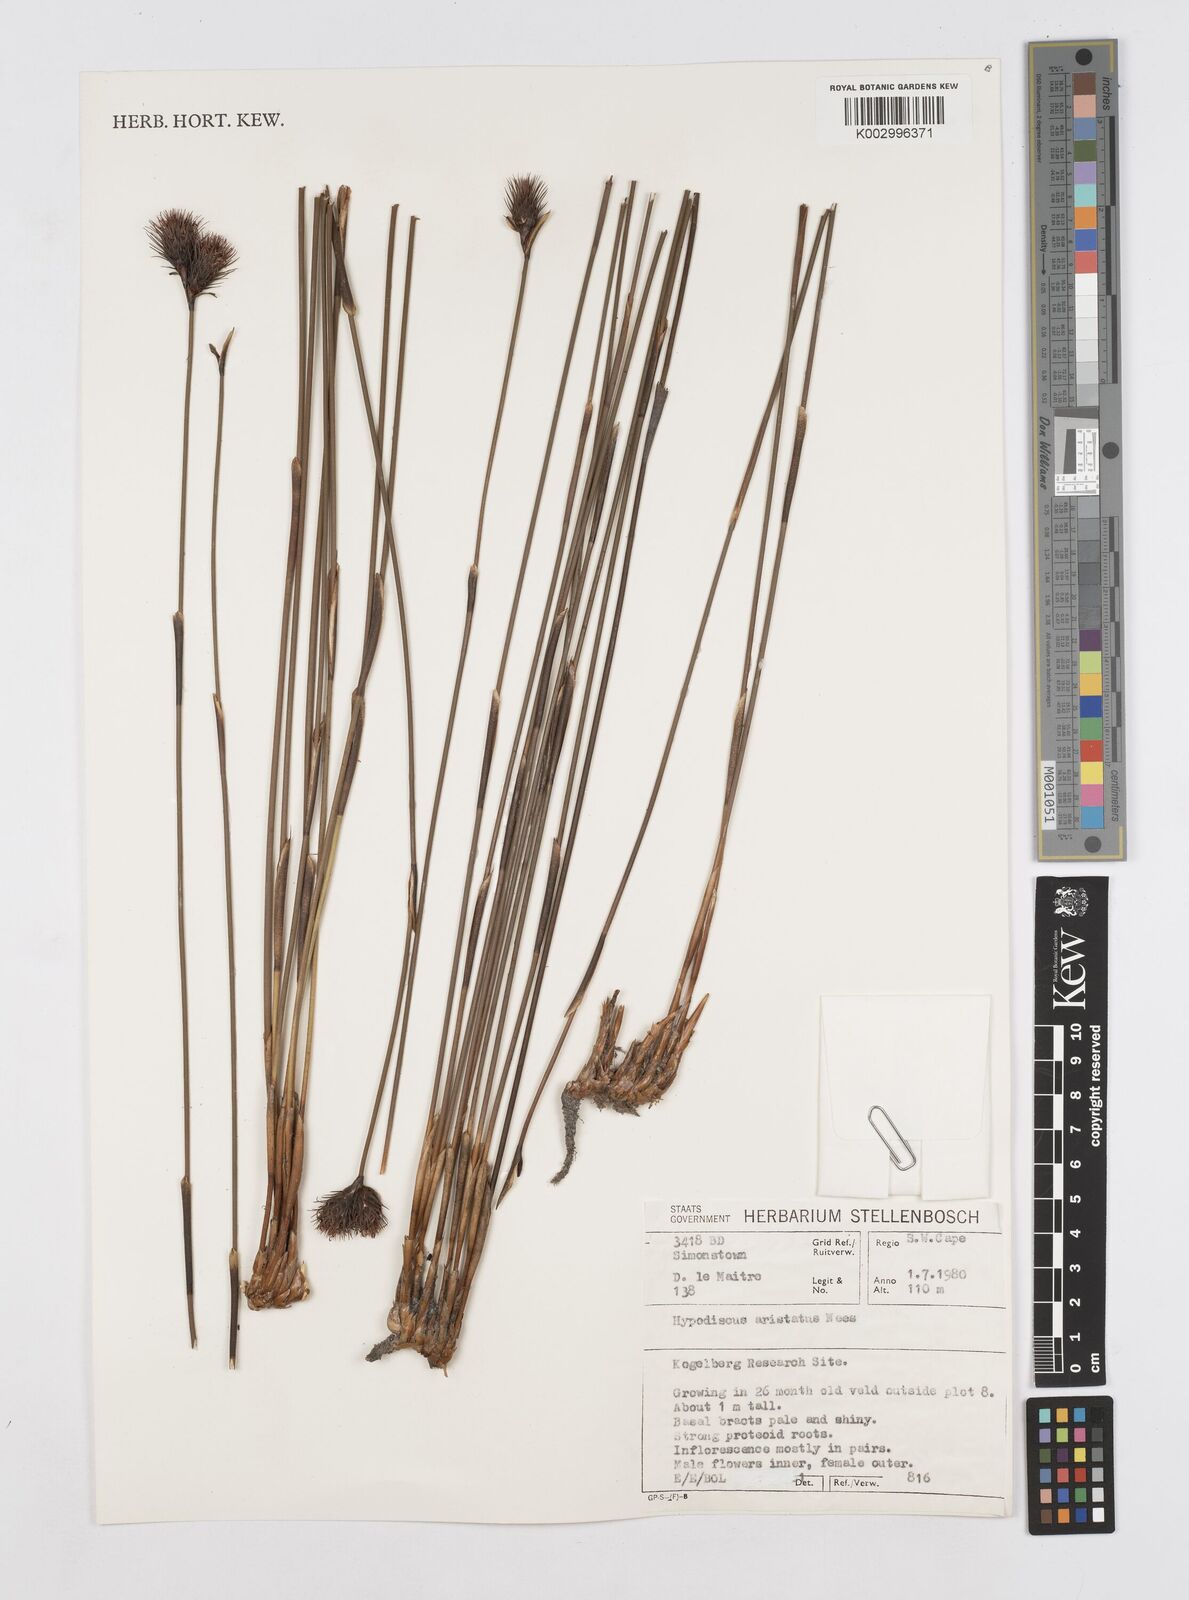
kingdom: Plantae
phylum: Tracheophyta
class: Liliopsida
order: Poales
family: Restionaceae
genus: Hypodiscus
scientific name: Hypodiscus aristatus
